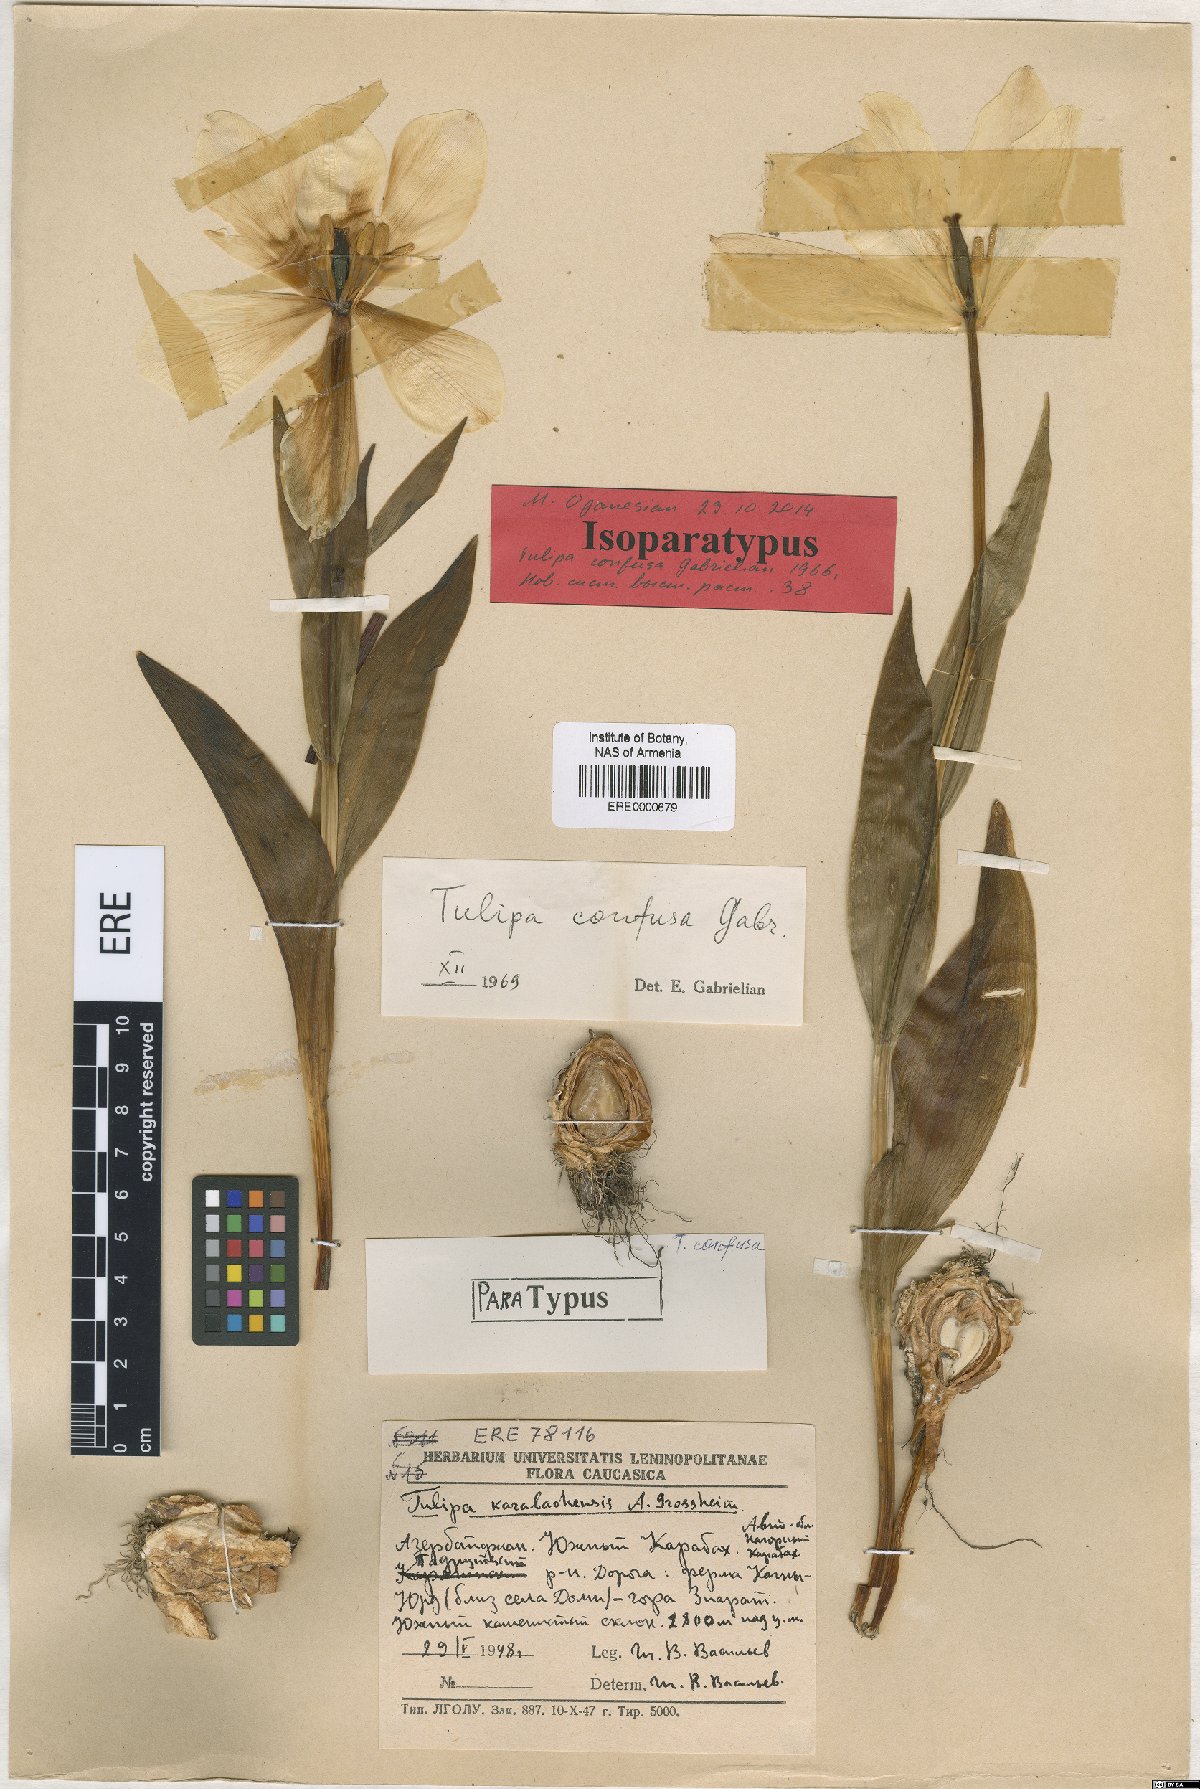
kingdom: Plantae
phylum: Tracheophyta
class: Liliopsida
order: Liliales
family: Liliaceae
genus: Tulipa
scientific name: Tulipa armena
